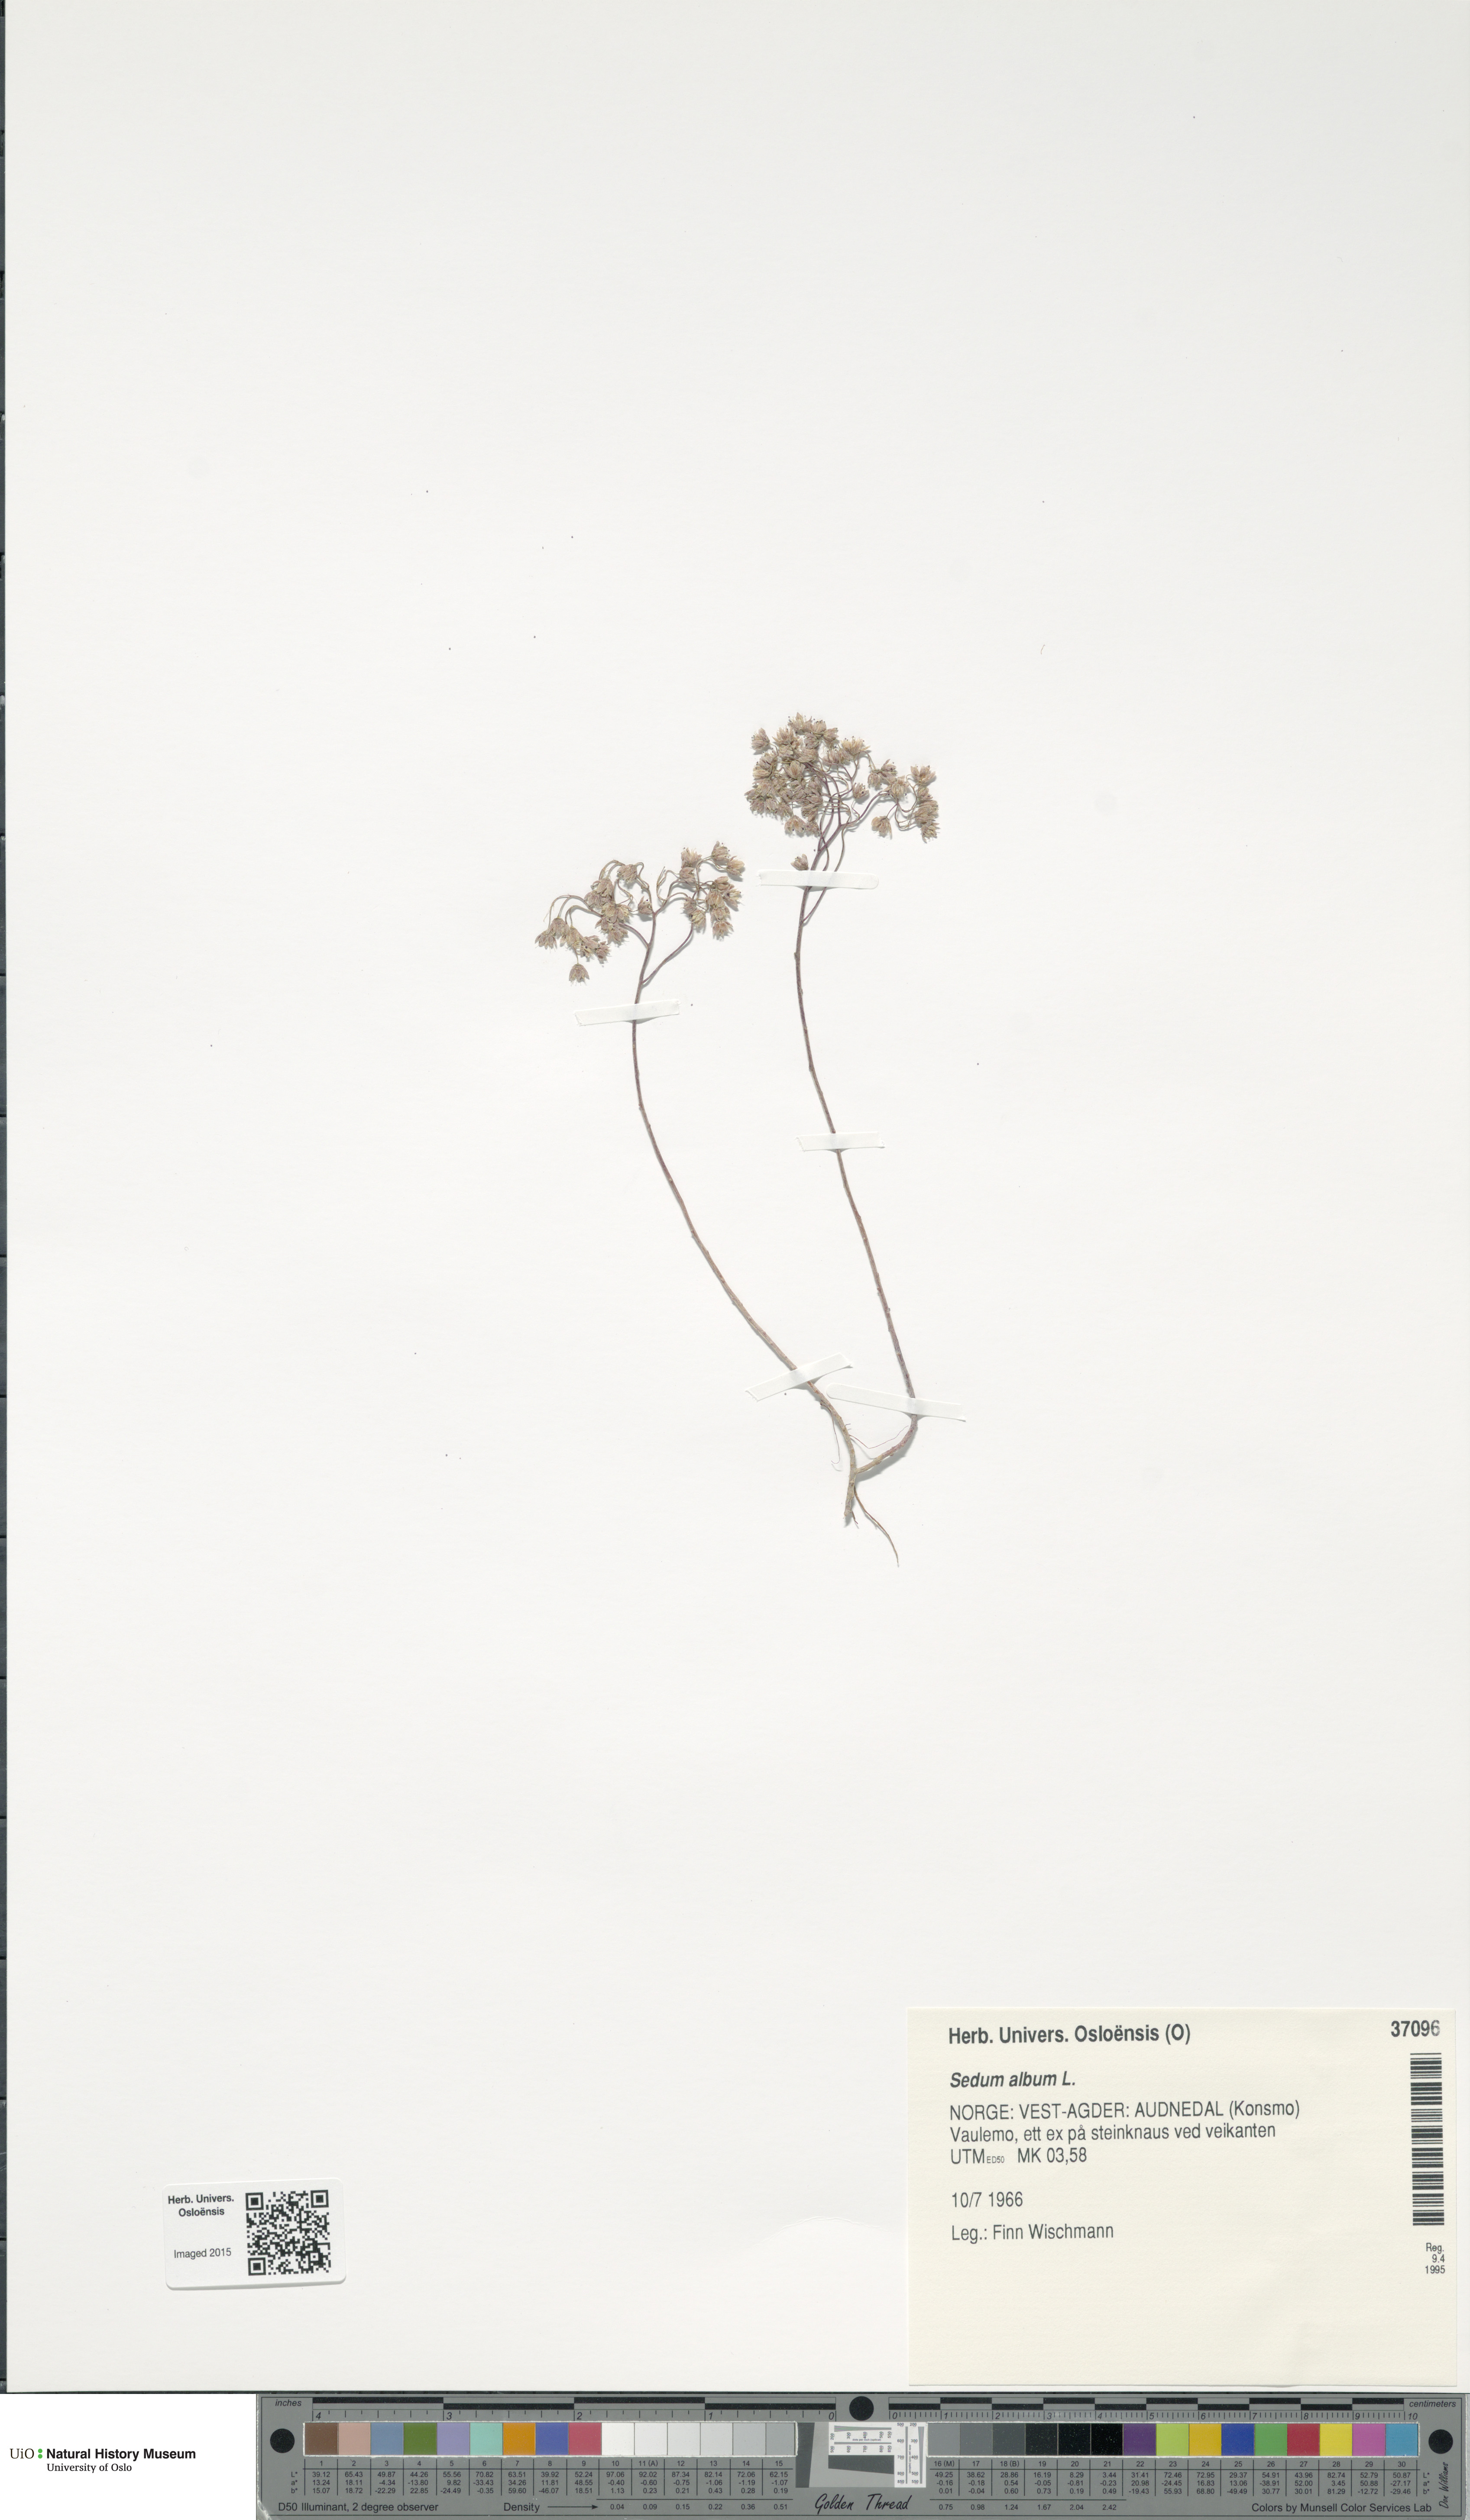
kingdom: Plantae
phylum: Tracheophyta
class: Magnoliopsida
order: Saxifragales
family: Crassulaceae
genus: Sedum
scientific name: Sedum album
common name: White stonecrop
